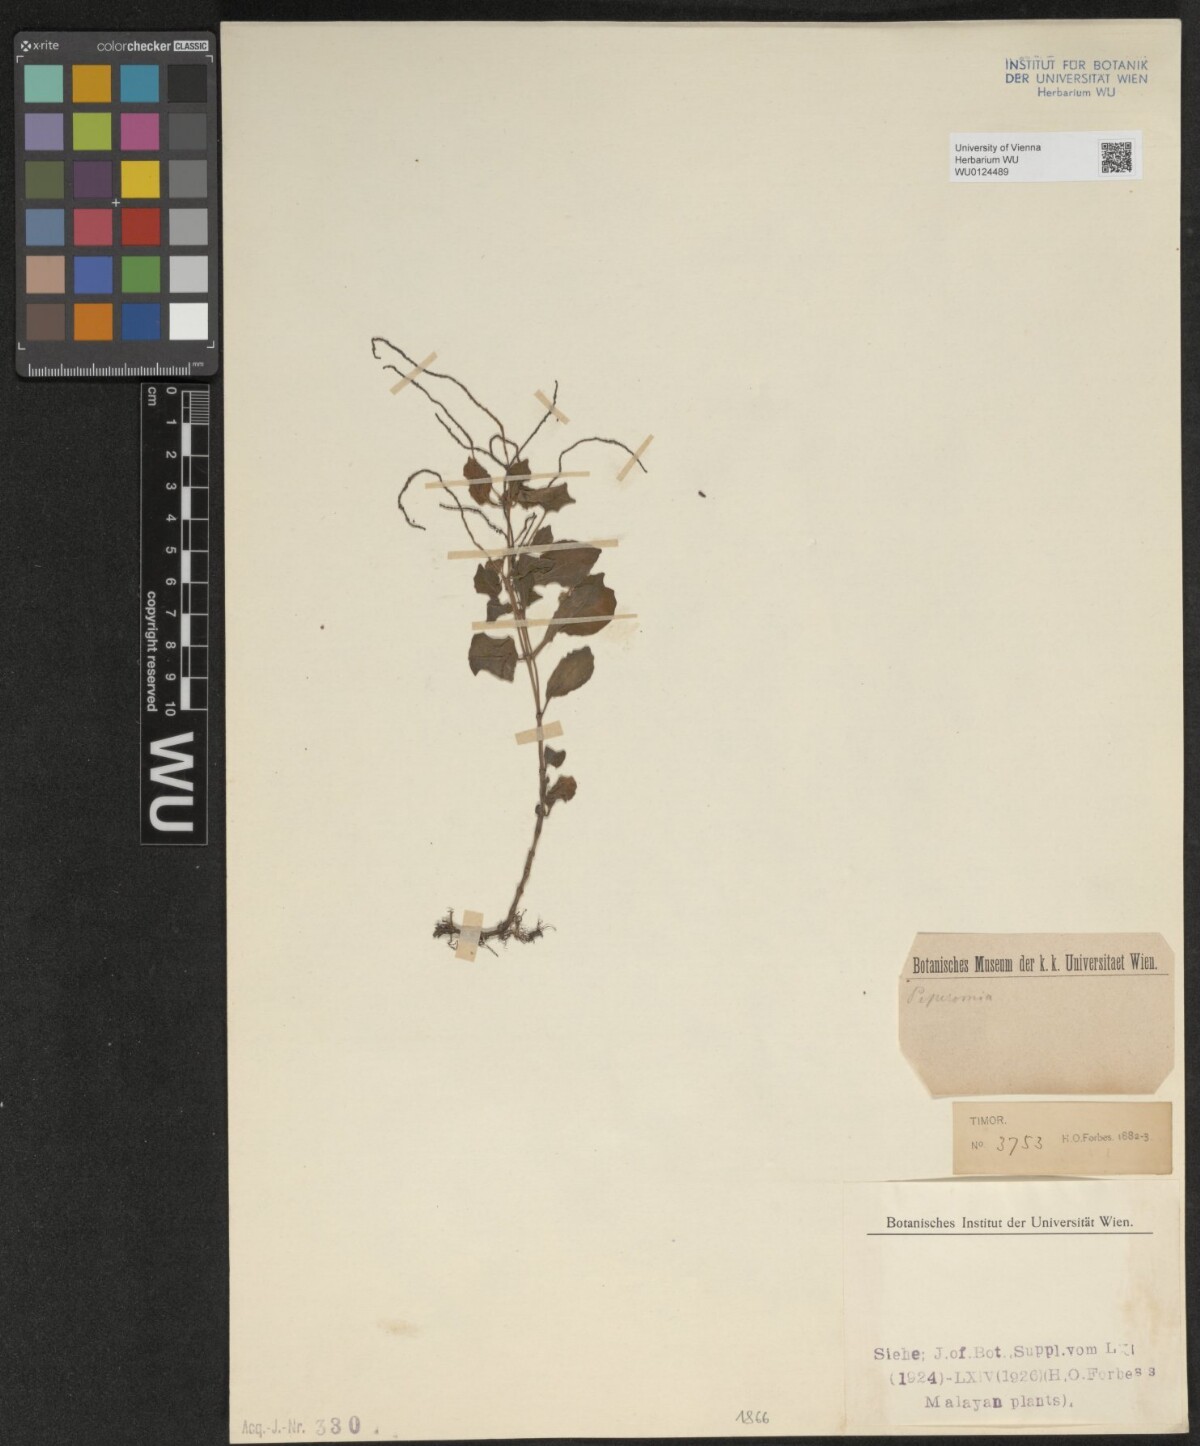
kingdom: Plantae
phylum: Tracheophyta
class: Magnoliopsida
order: Piperales
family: Piperaceae
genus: Peperomia
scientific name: Peperomia
